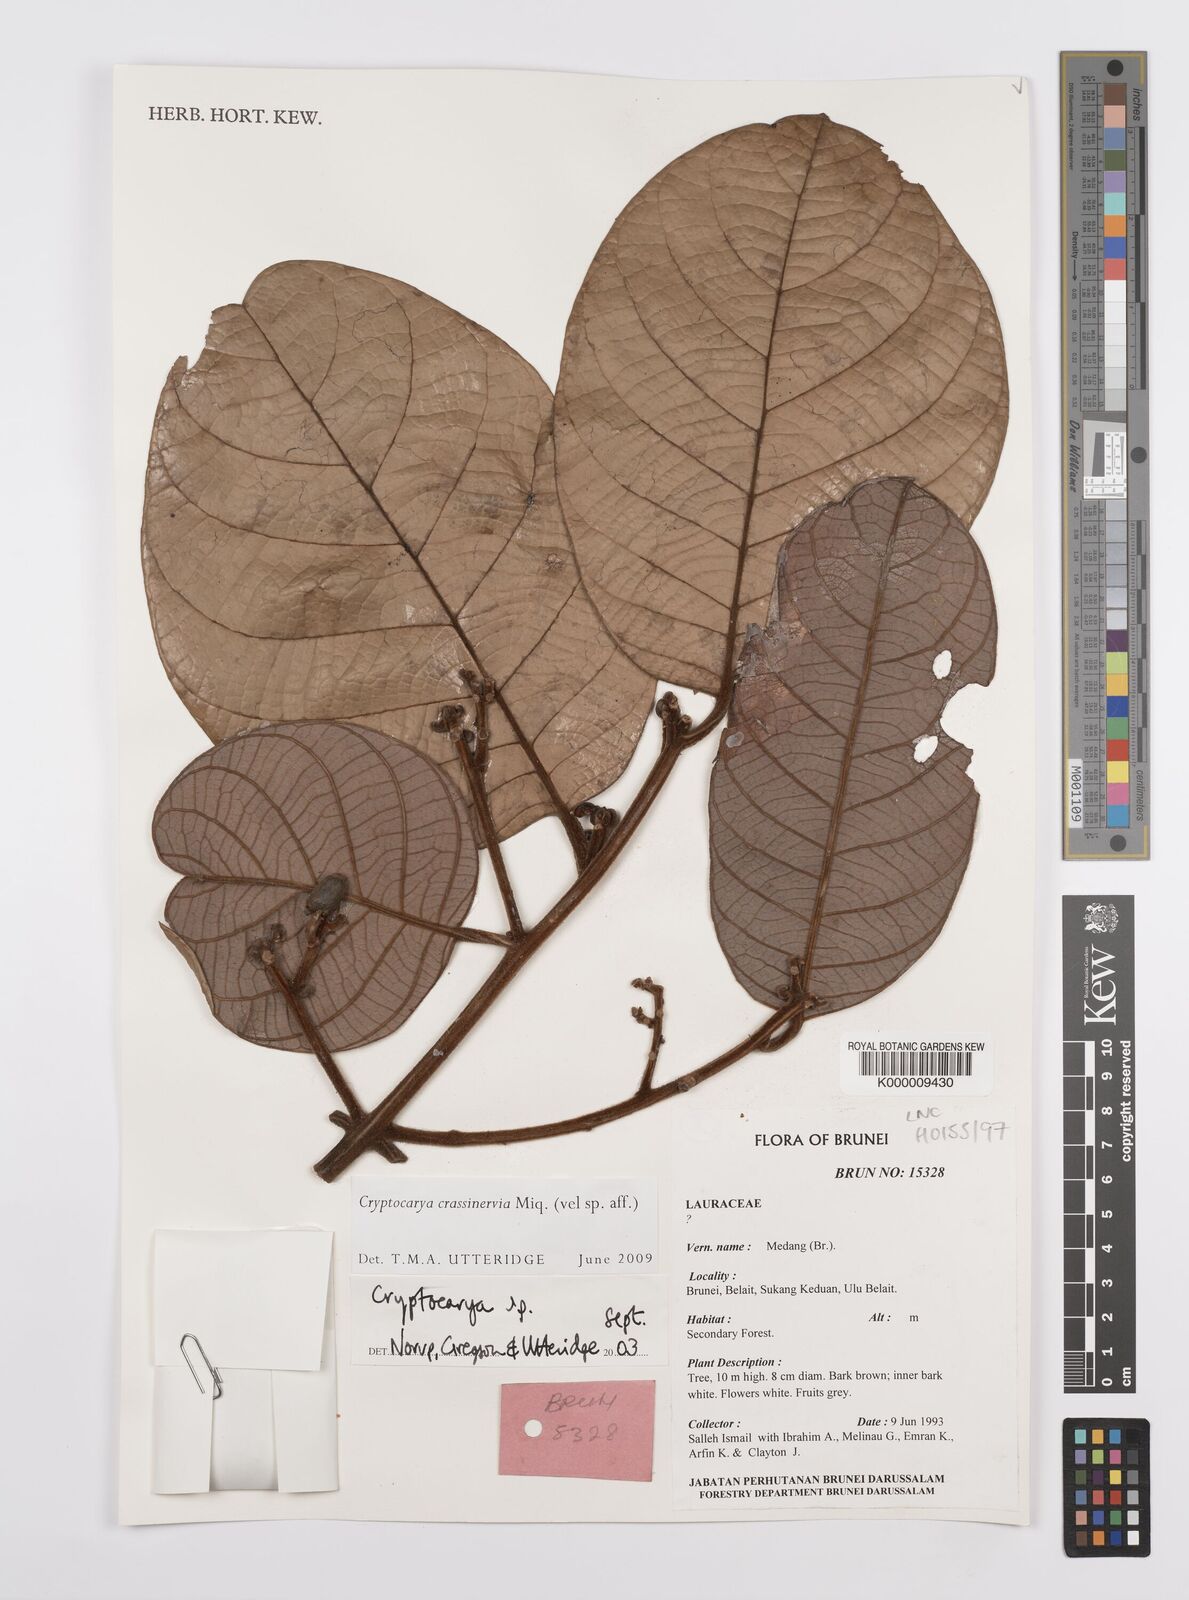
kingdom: Plantae
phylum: Tracheophyta
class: Magnoliopsida
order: Laurales
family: Lauraceae
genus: Cryptocarya
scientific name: Cryptocarya
